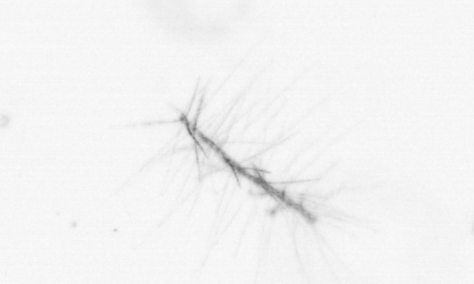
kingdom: Chromista
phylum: Ochrophyta
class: Bacillariophyceae
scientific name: Bacillariophyceae
